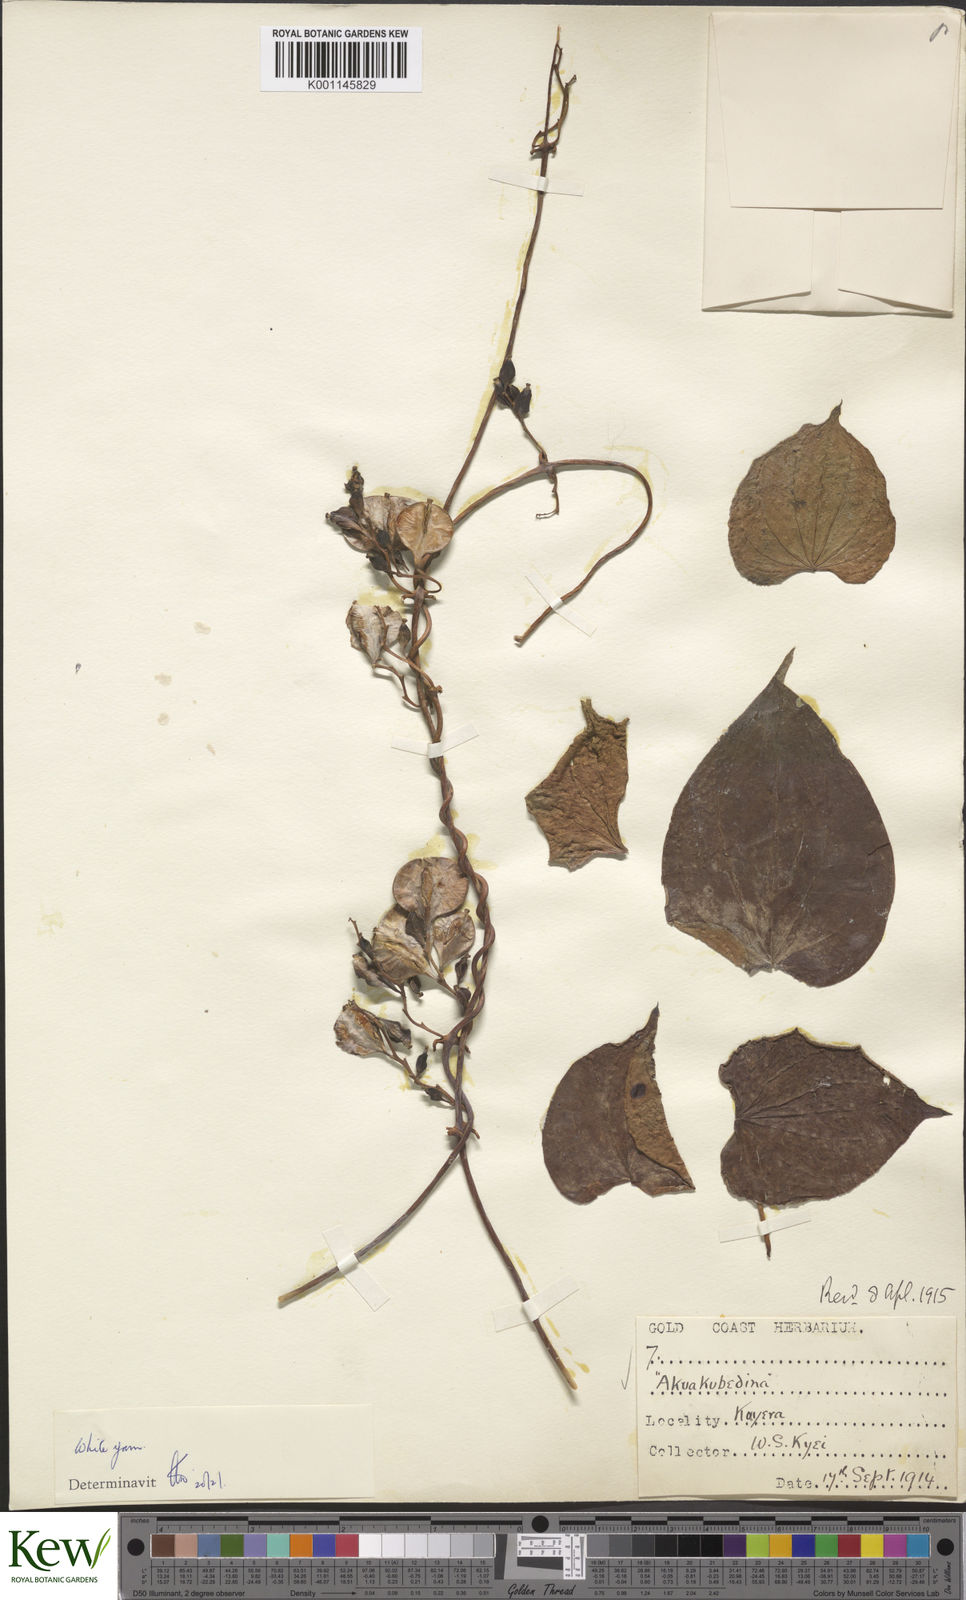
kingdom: Plantae
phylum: Tracheophyta
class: Liliopsida
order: Dioscoreales
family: Dioscoreaceae
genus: Dioscorea
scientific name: Dioscorea cayenensis
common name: Attoto yam
